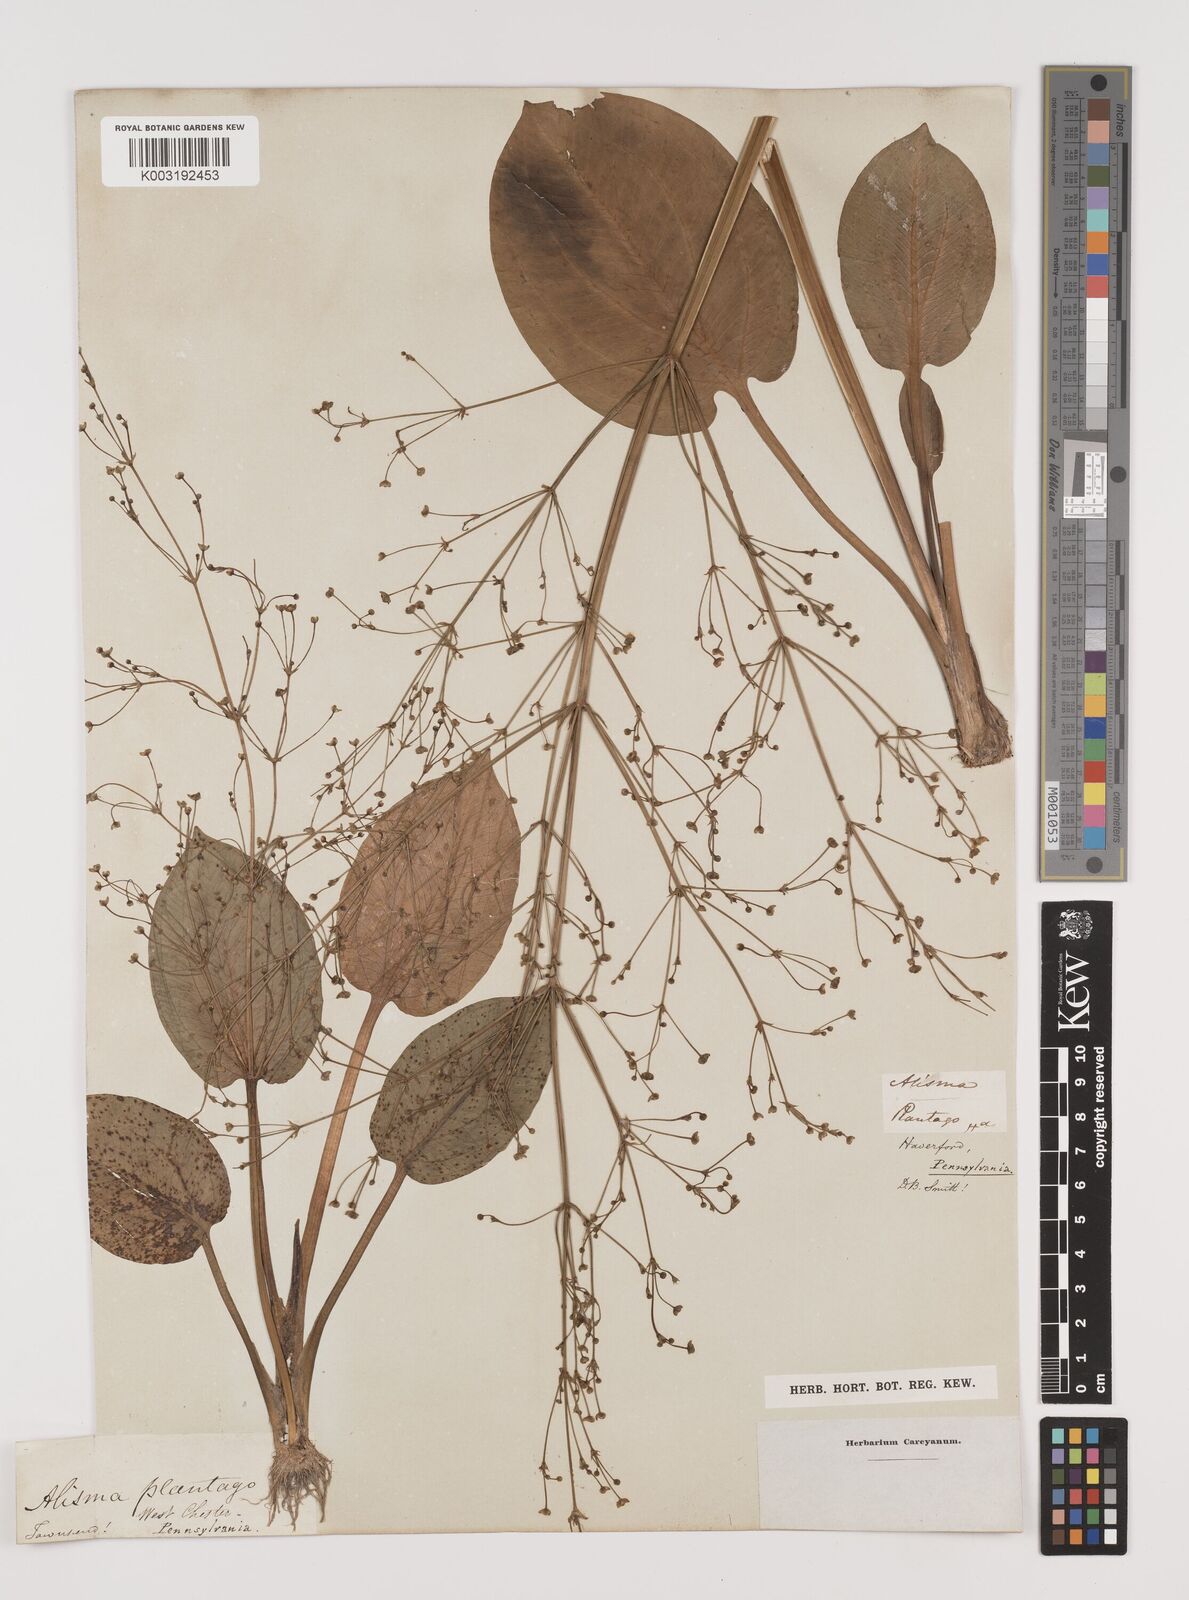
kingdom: Plantae
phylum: Tracheophyta
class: Liliopsida
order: Alismatales
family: Alismataceae
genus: Alisma
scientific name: Alisma plantago-aquatica
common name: Water-plantain
